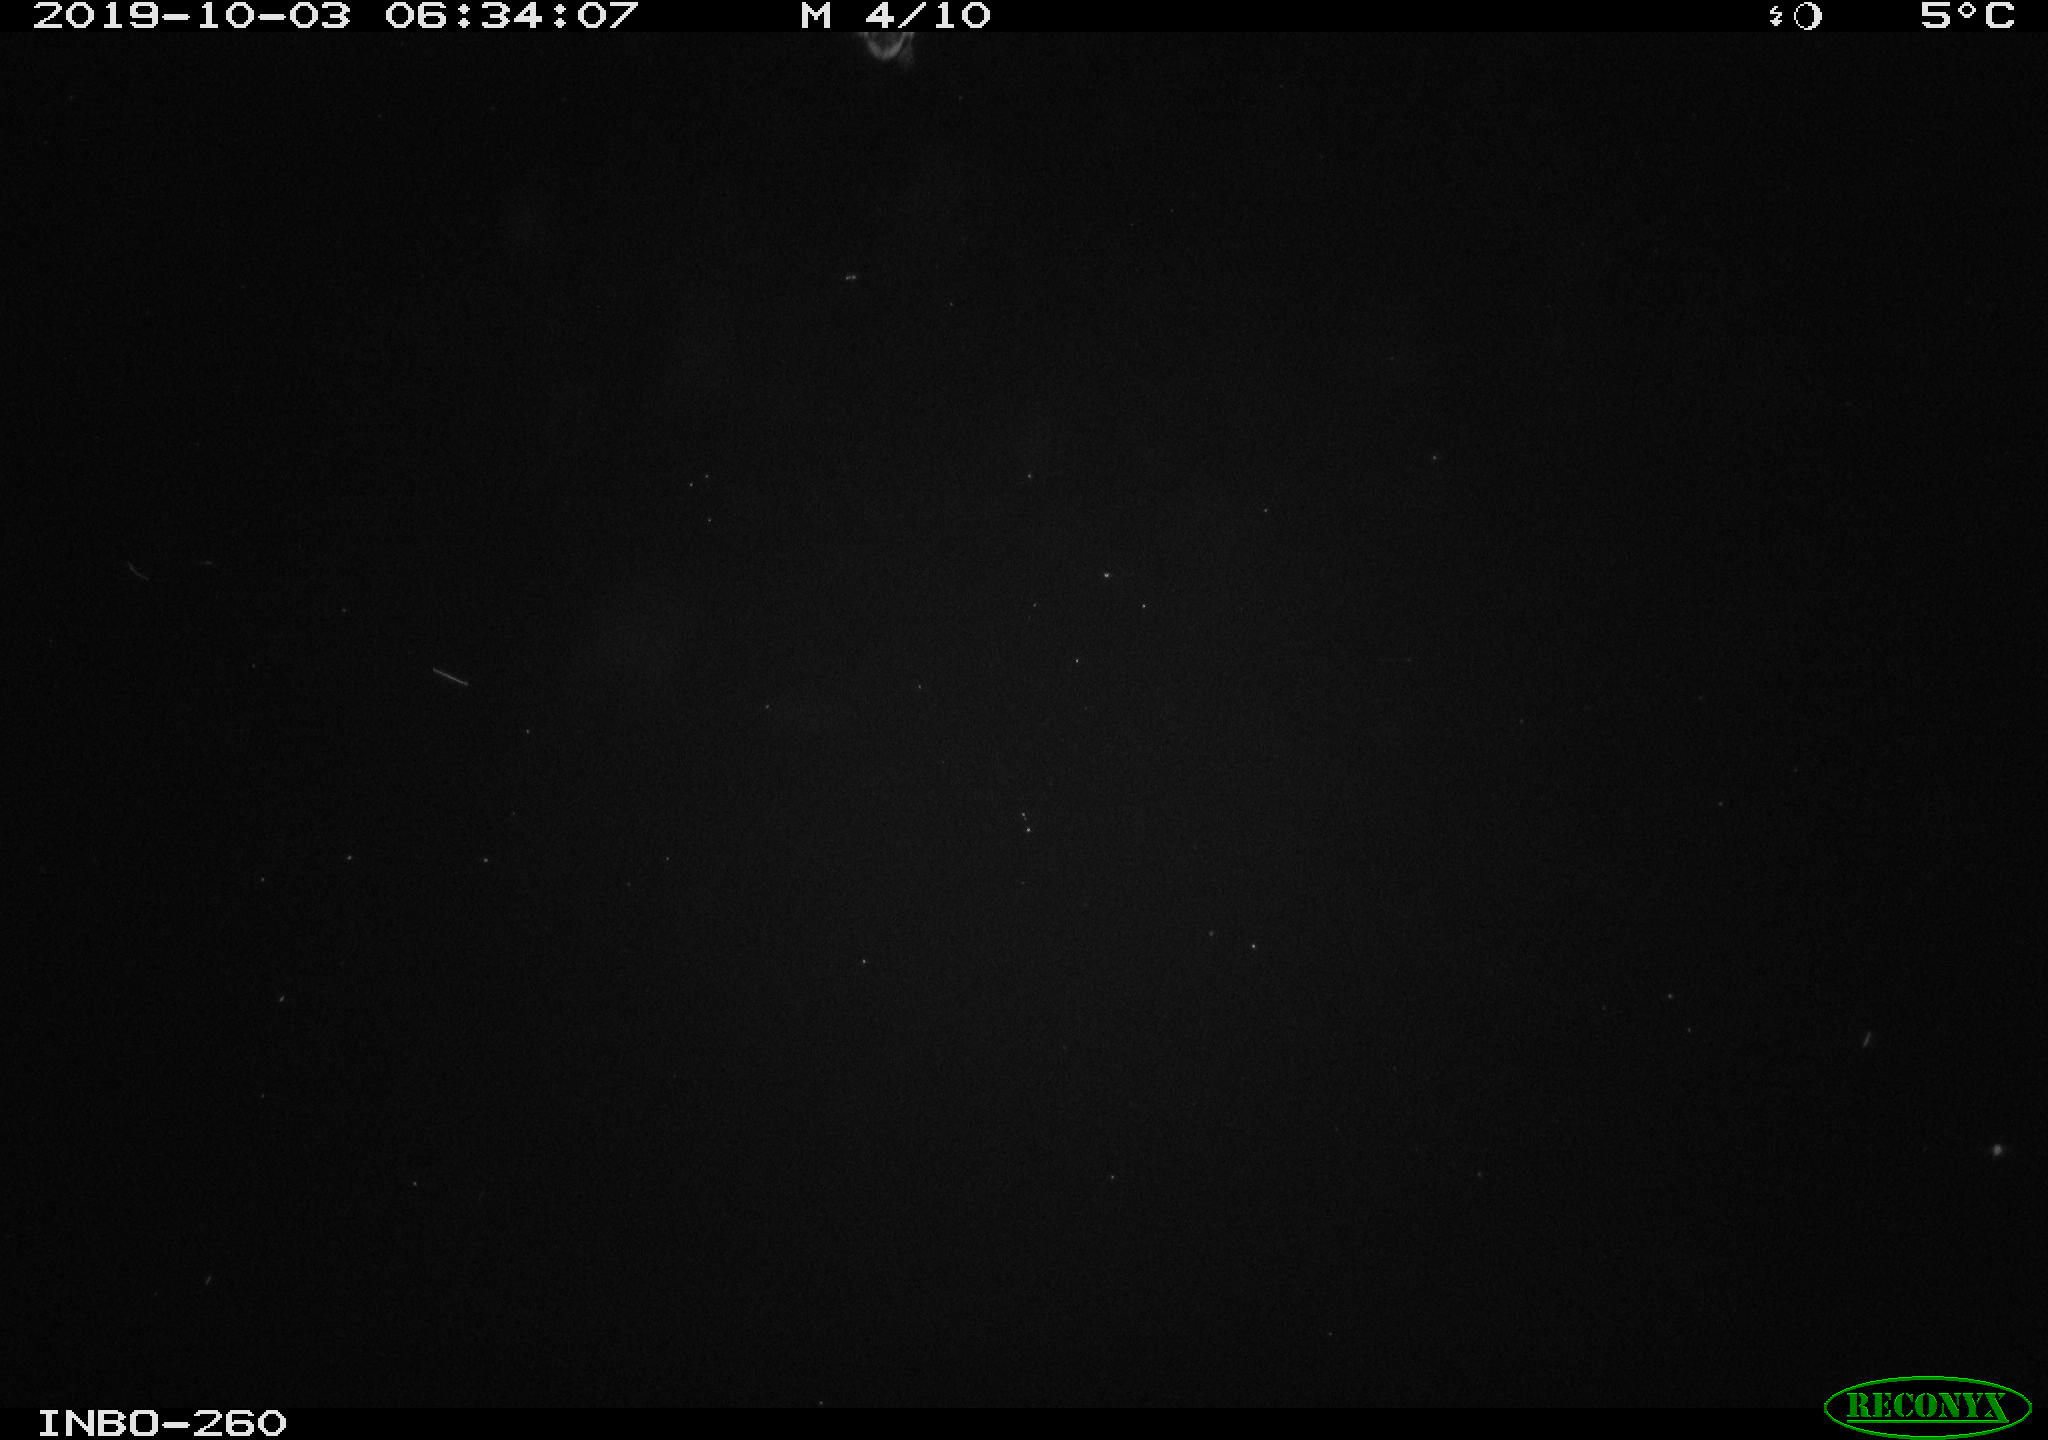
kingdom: Animalia
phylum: Chordata
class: Aves
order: Anseriformes
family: Anatidae
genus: Anas
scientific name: Anas platyrhynchos
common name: Mallard
